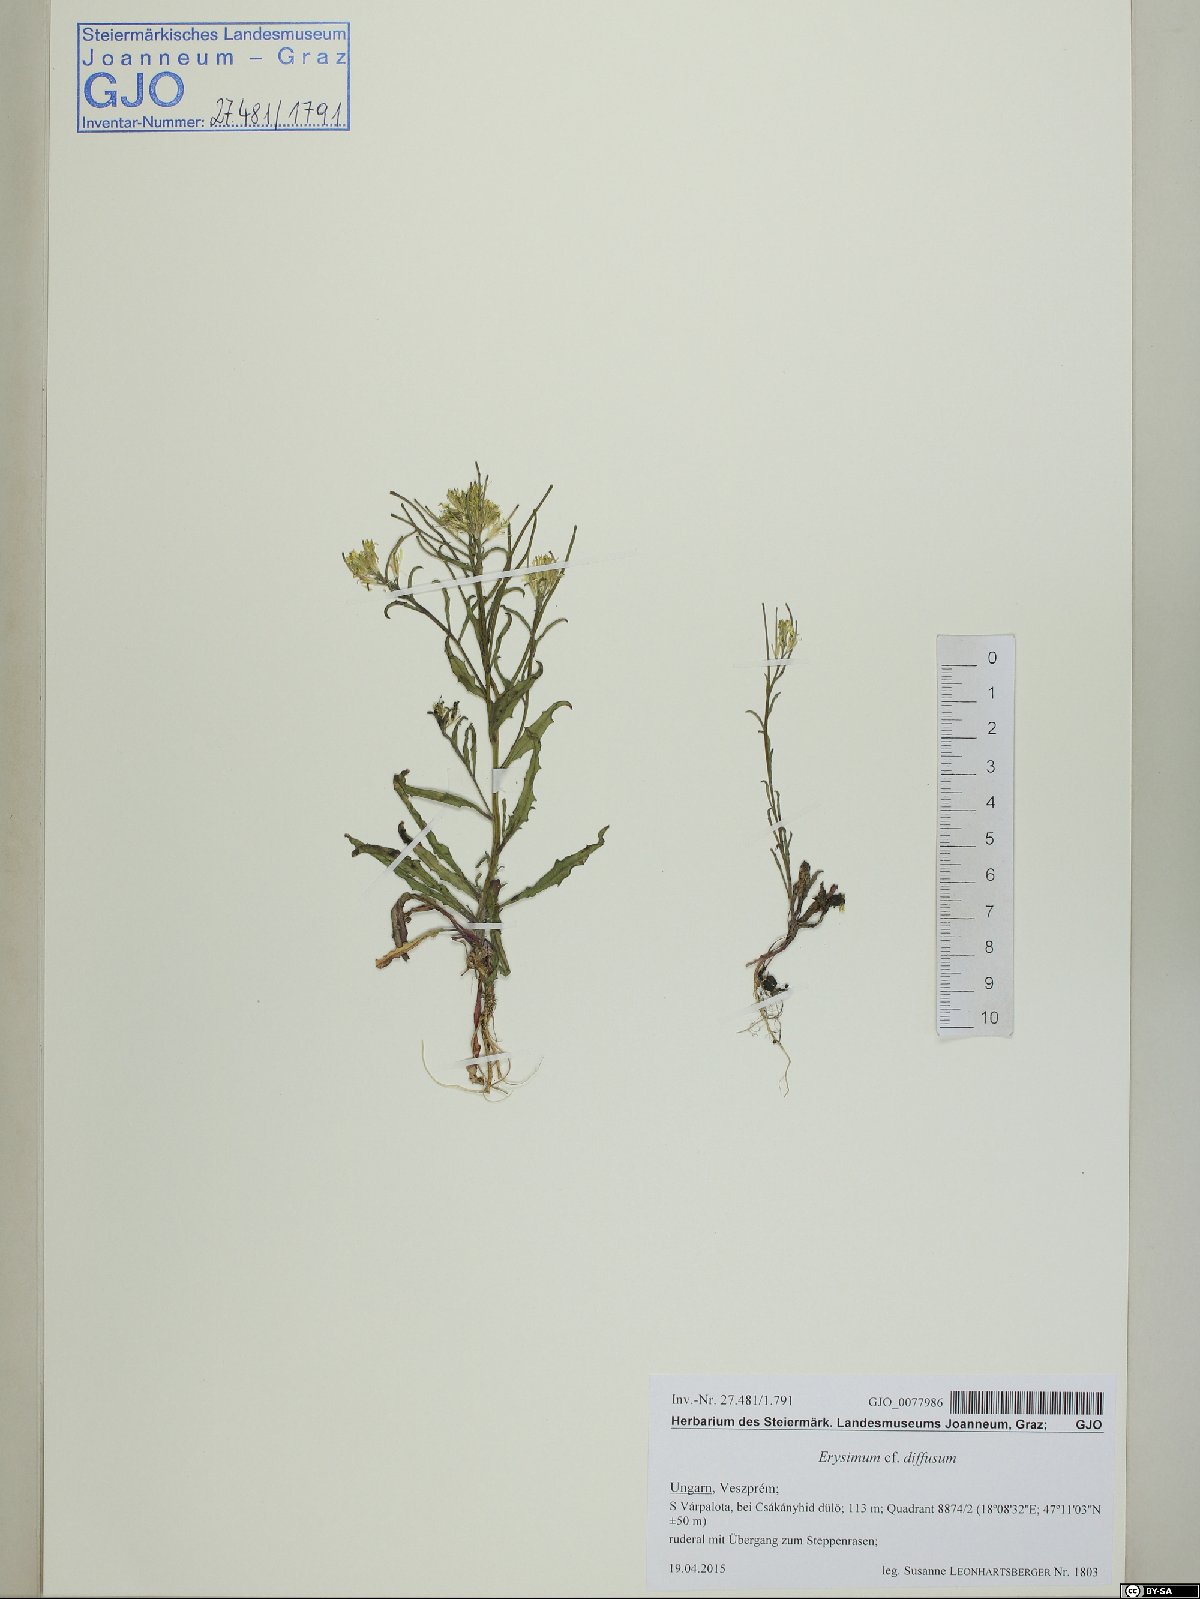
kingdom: Plantae
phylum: Tracheophyta
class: Magnoliopsida
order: Brassicales
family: Brassicaceae
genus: Erysimum
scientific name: Erysimum diffusum
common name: Diffuse wallflower
